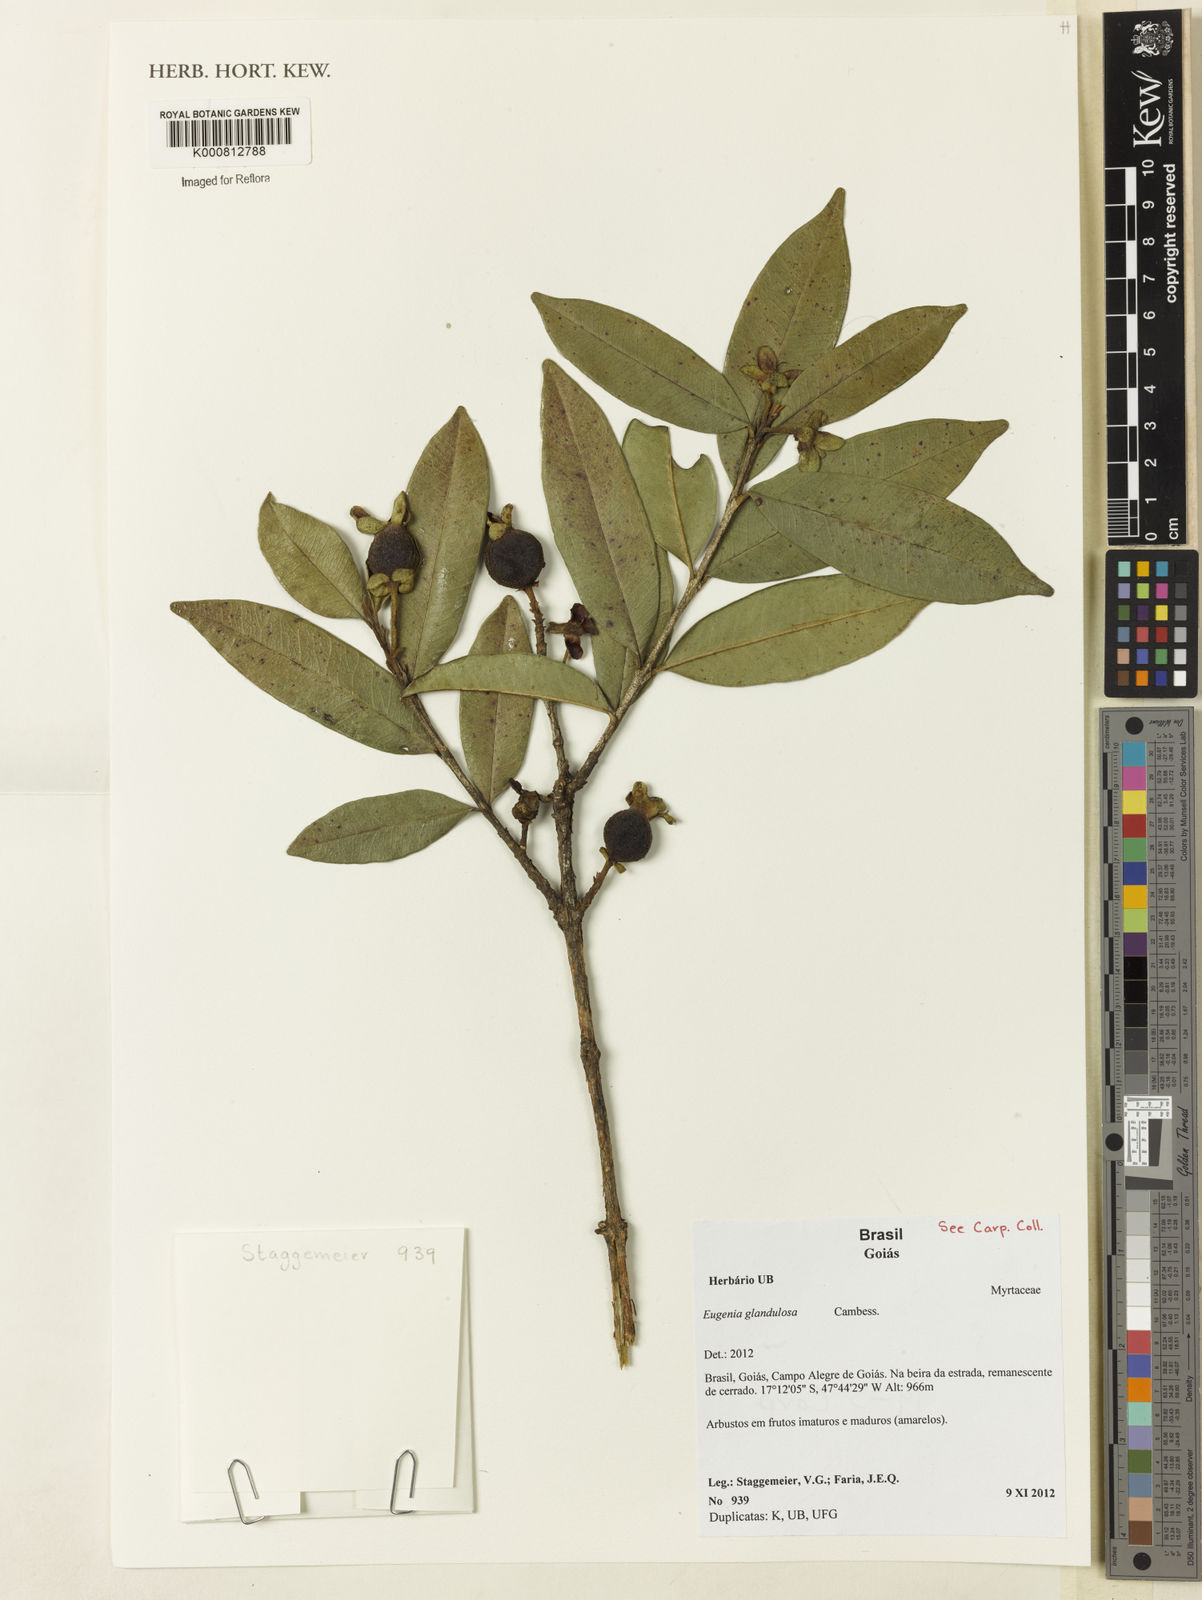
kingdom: Plantae
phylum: Tracheophyta
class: Magnoliopsida
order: Myrtales
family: Myrtaceae
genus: Eugenia
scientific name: Eugenia glandulosa
